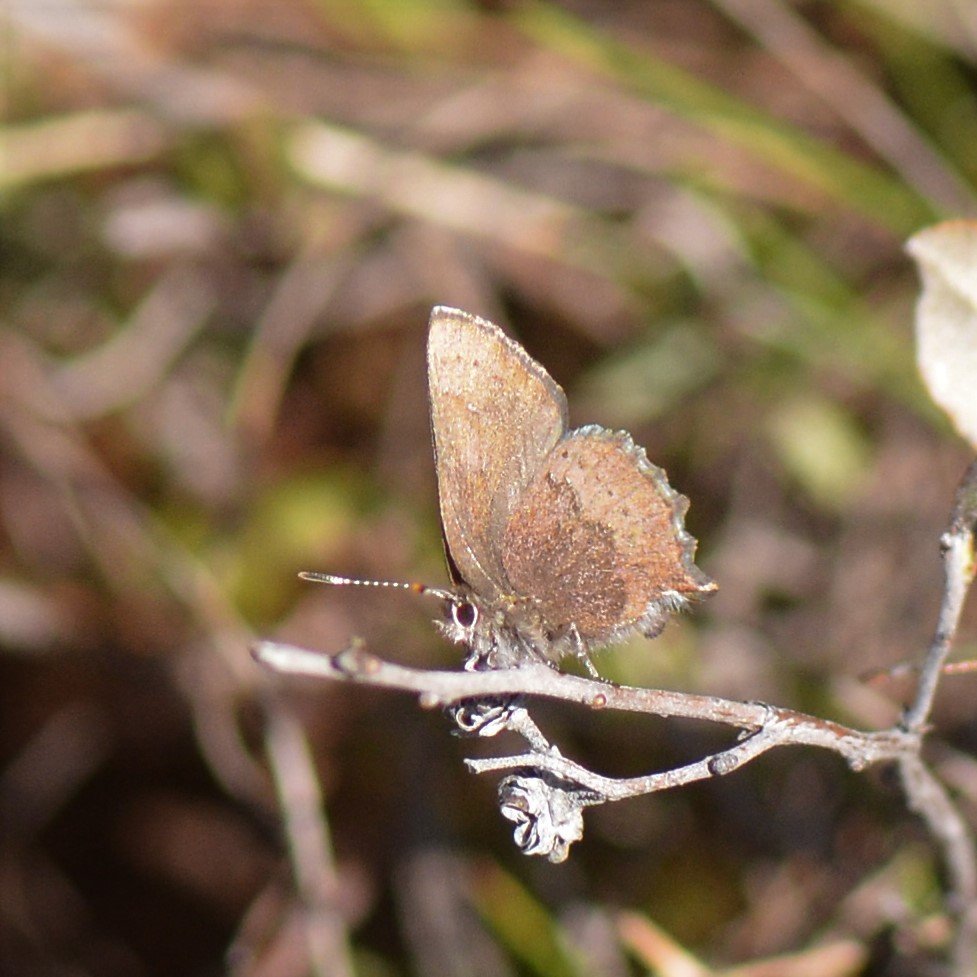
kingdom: Animalia
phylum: Arthropoda
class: Insecta
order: Lepidoptera
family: Lycaenidae
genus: Incisalia
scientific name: Incisalia irioides
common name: Brown Elfin
